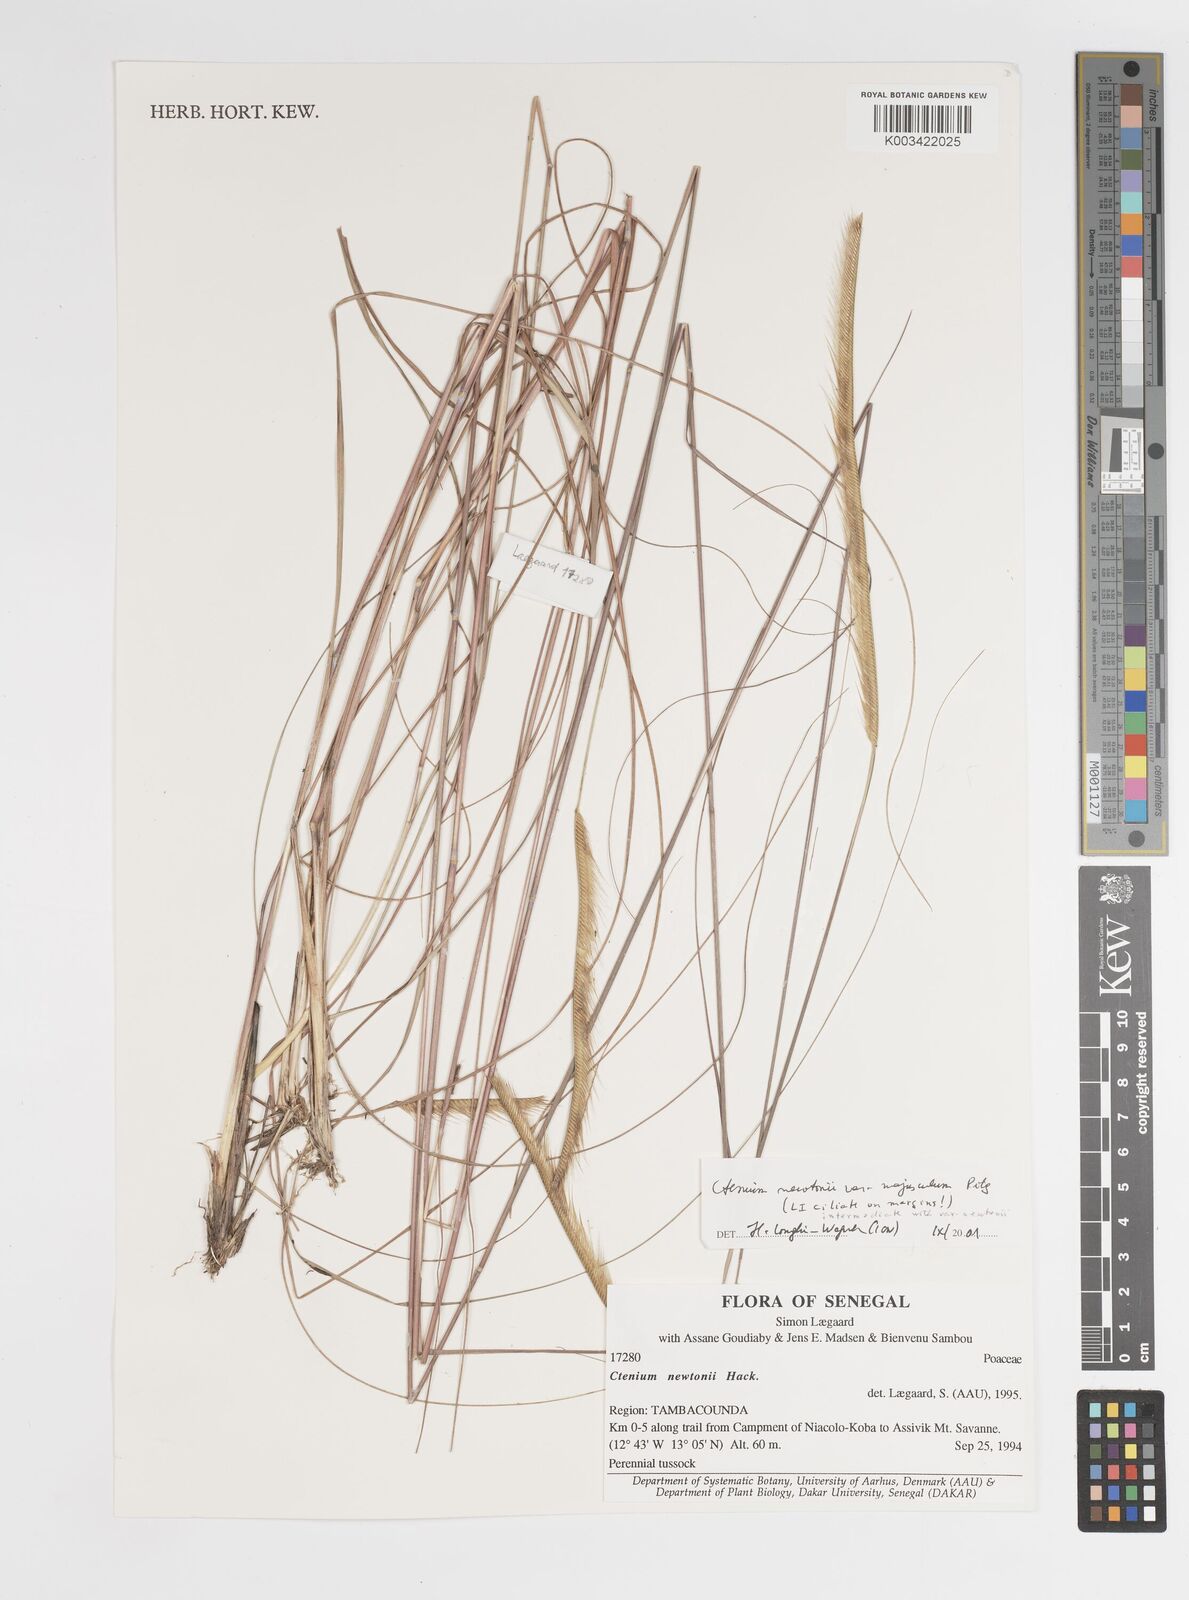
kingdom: Plantae
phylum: Tracheophyta
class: Liliopsida
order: Poales
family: Poaceae
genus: Ctenium
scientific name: Ctenium newtonii
